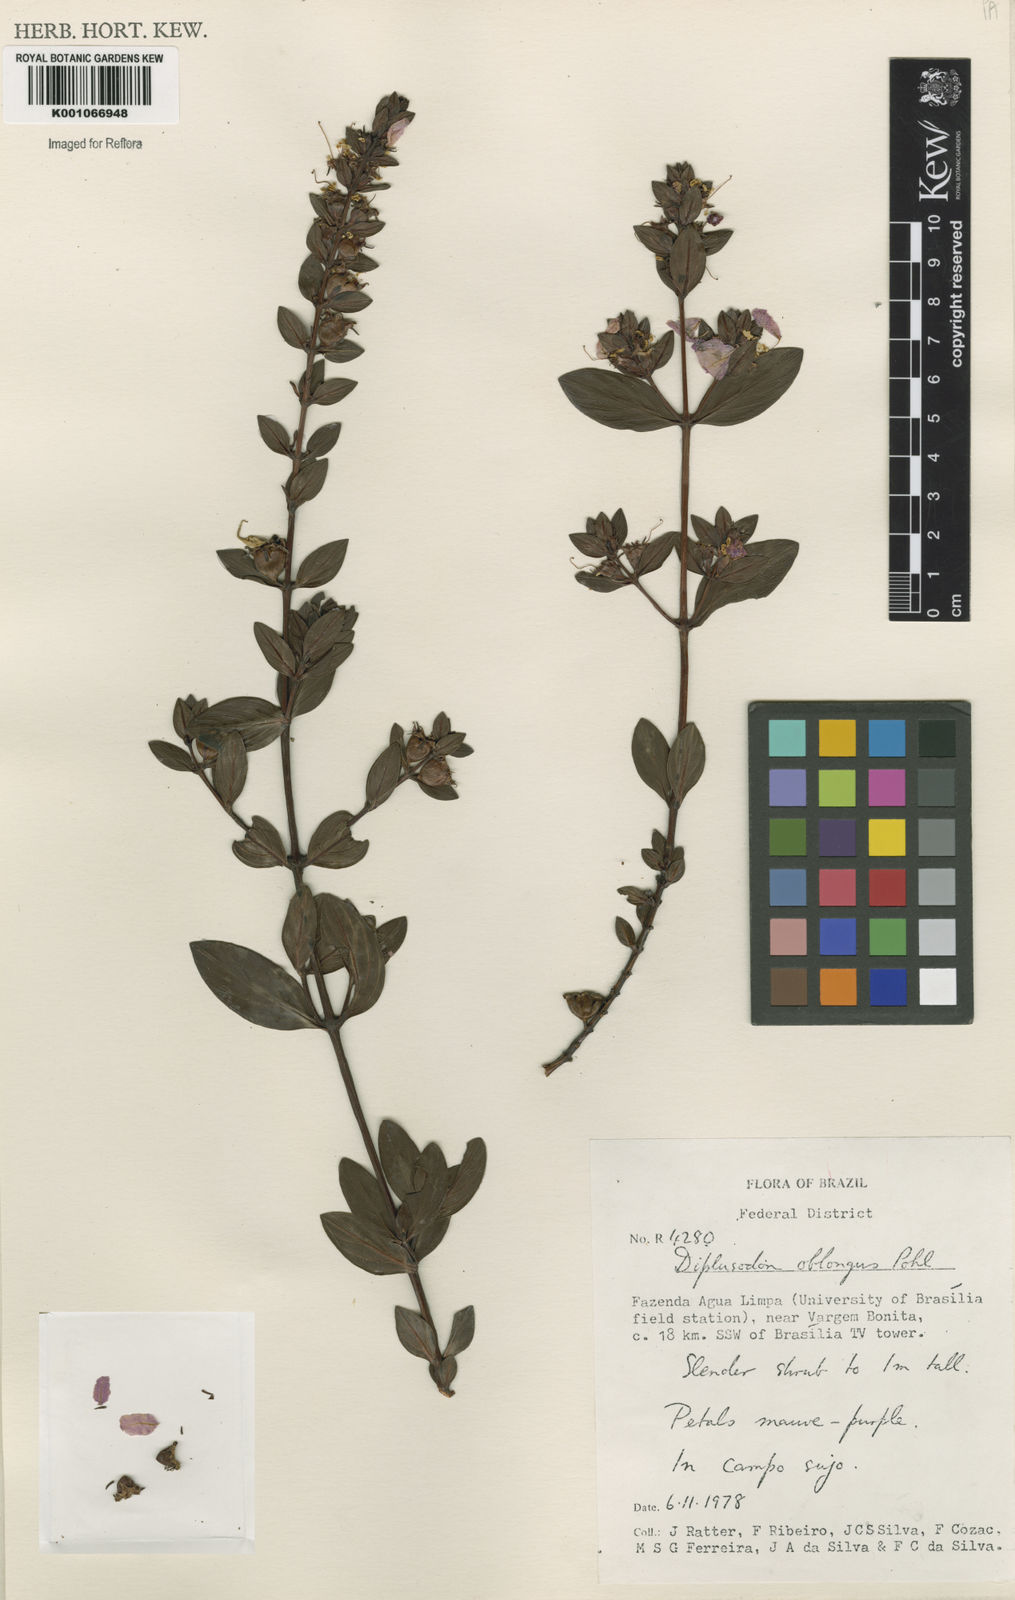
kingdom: Plantae
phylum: Tracheophyta
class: Magnoliopsida
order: Myrtales
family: Lythraceae
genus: Diplusodon
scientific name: Diplusodon oblongus
